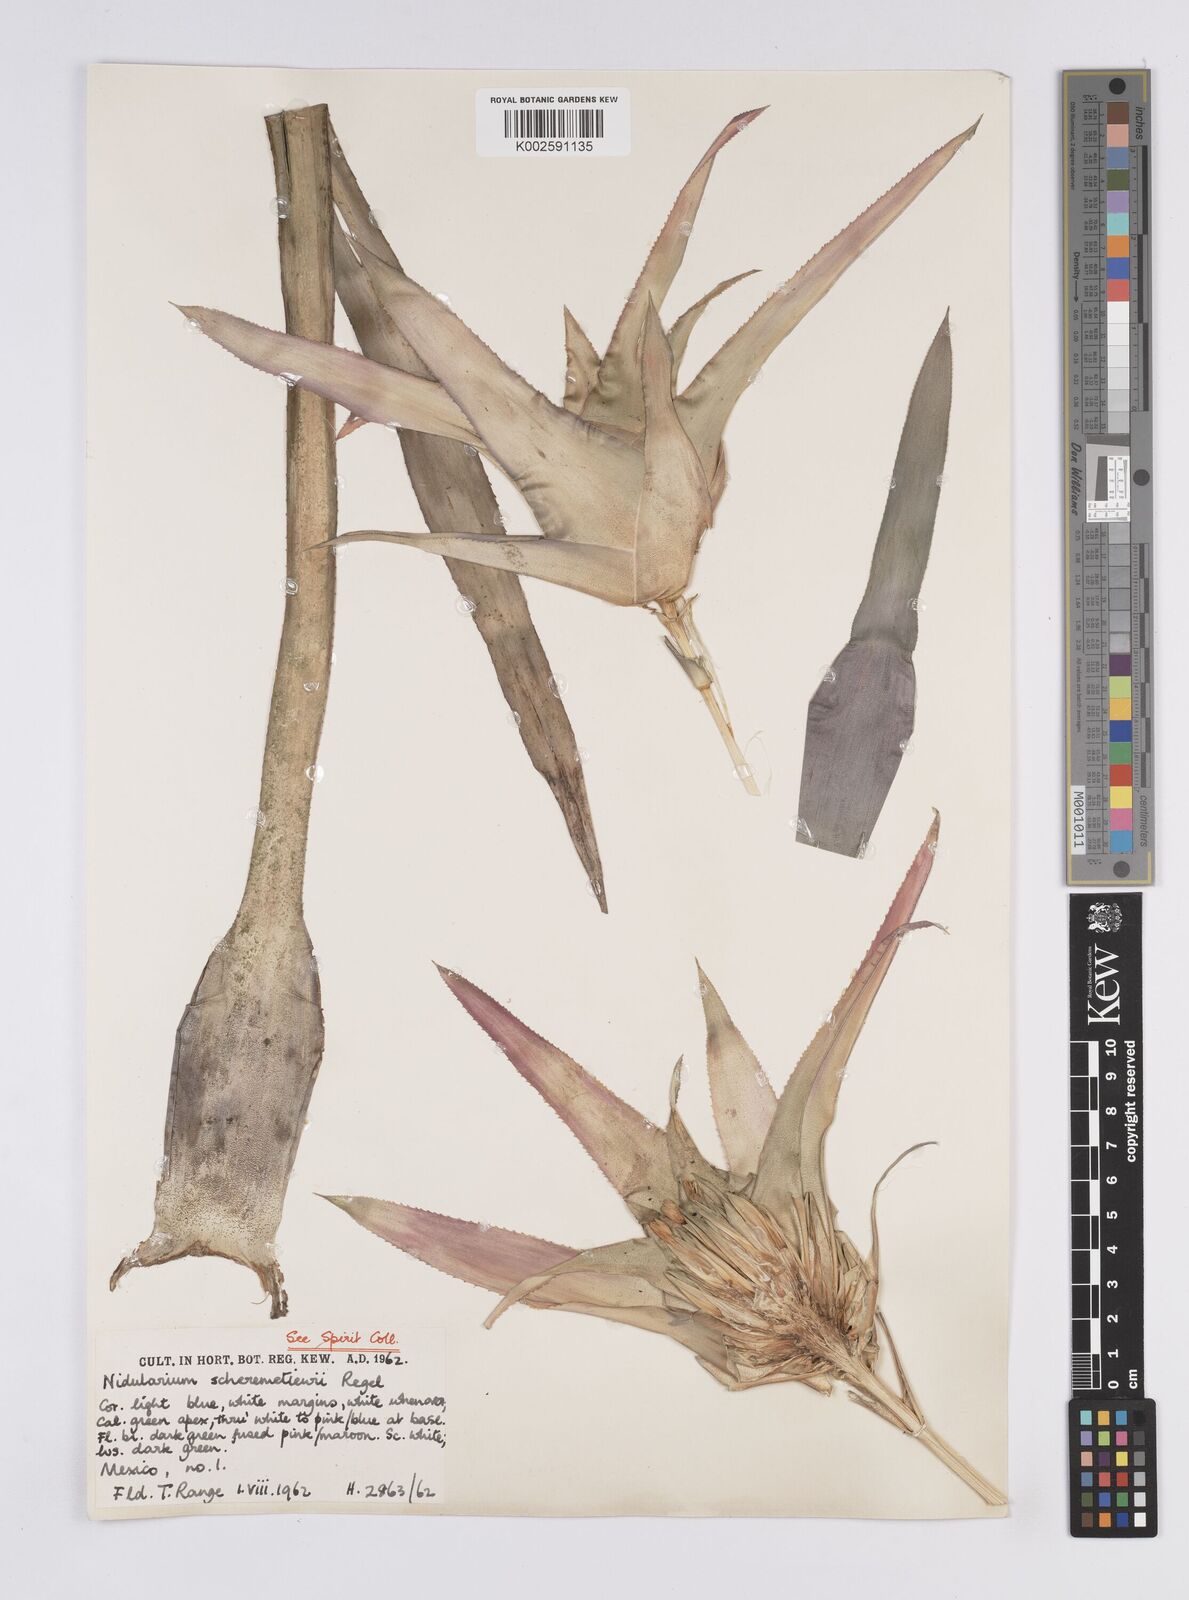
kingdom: Plantae
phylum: Tracheophyta
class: Liliopsida
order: Poales
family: Bromeliaceae
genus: Nidularium
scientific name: Nidularium scheremetiewii
